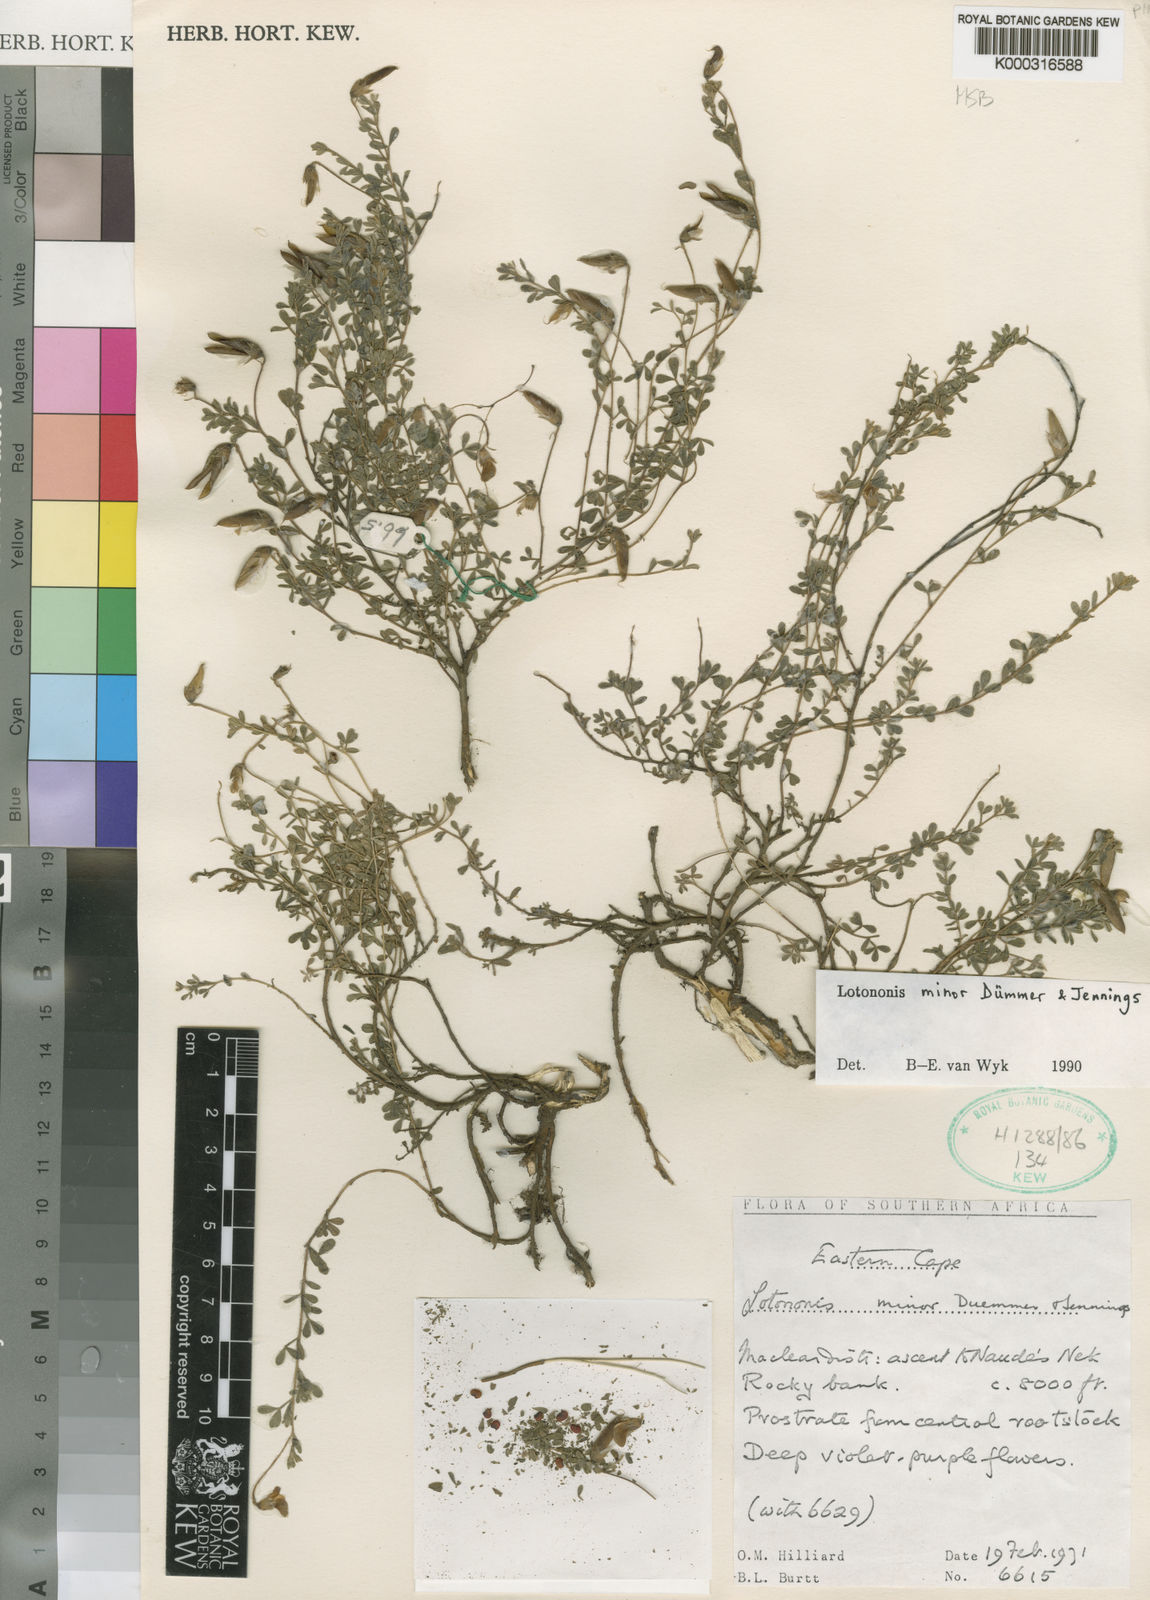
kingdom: Plantae
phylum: Tracheophyta
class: Magnoliopsida
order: Fabales
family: Fabaceae
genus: Lotononis
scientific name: Lotononis minor
